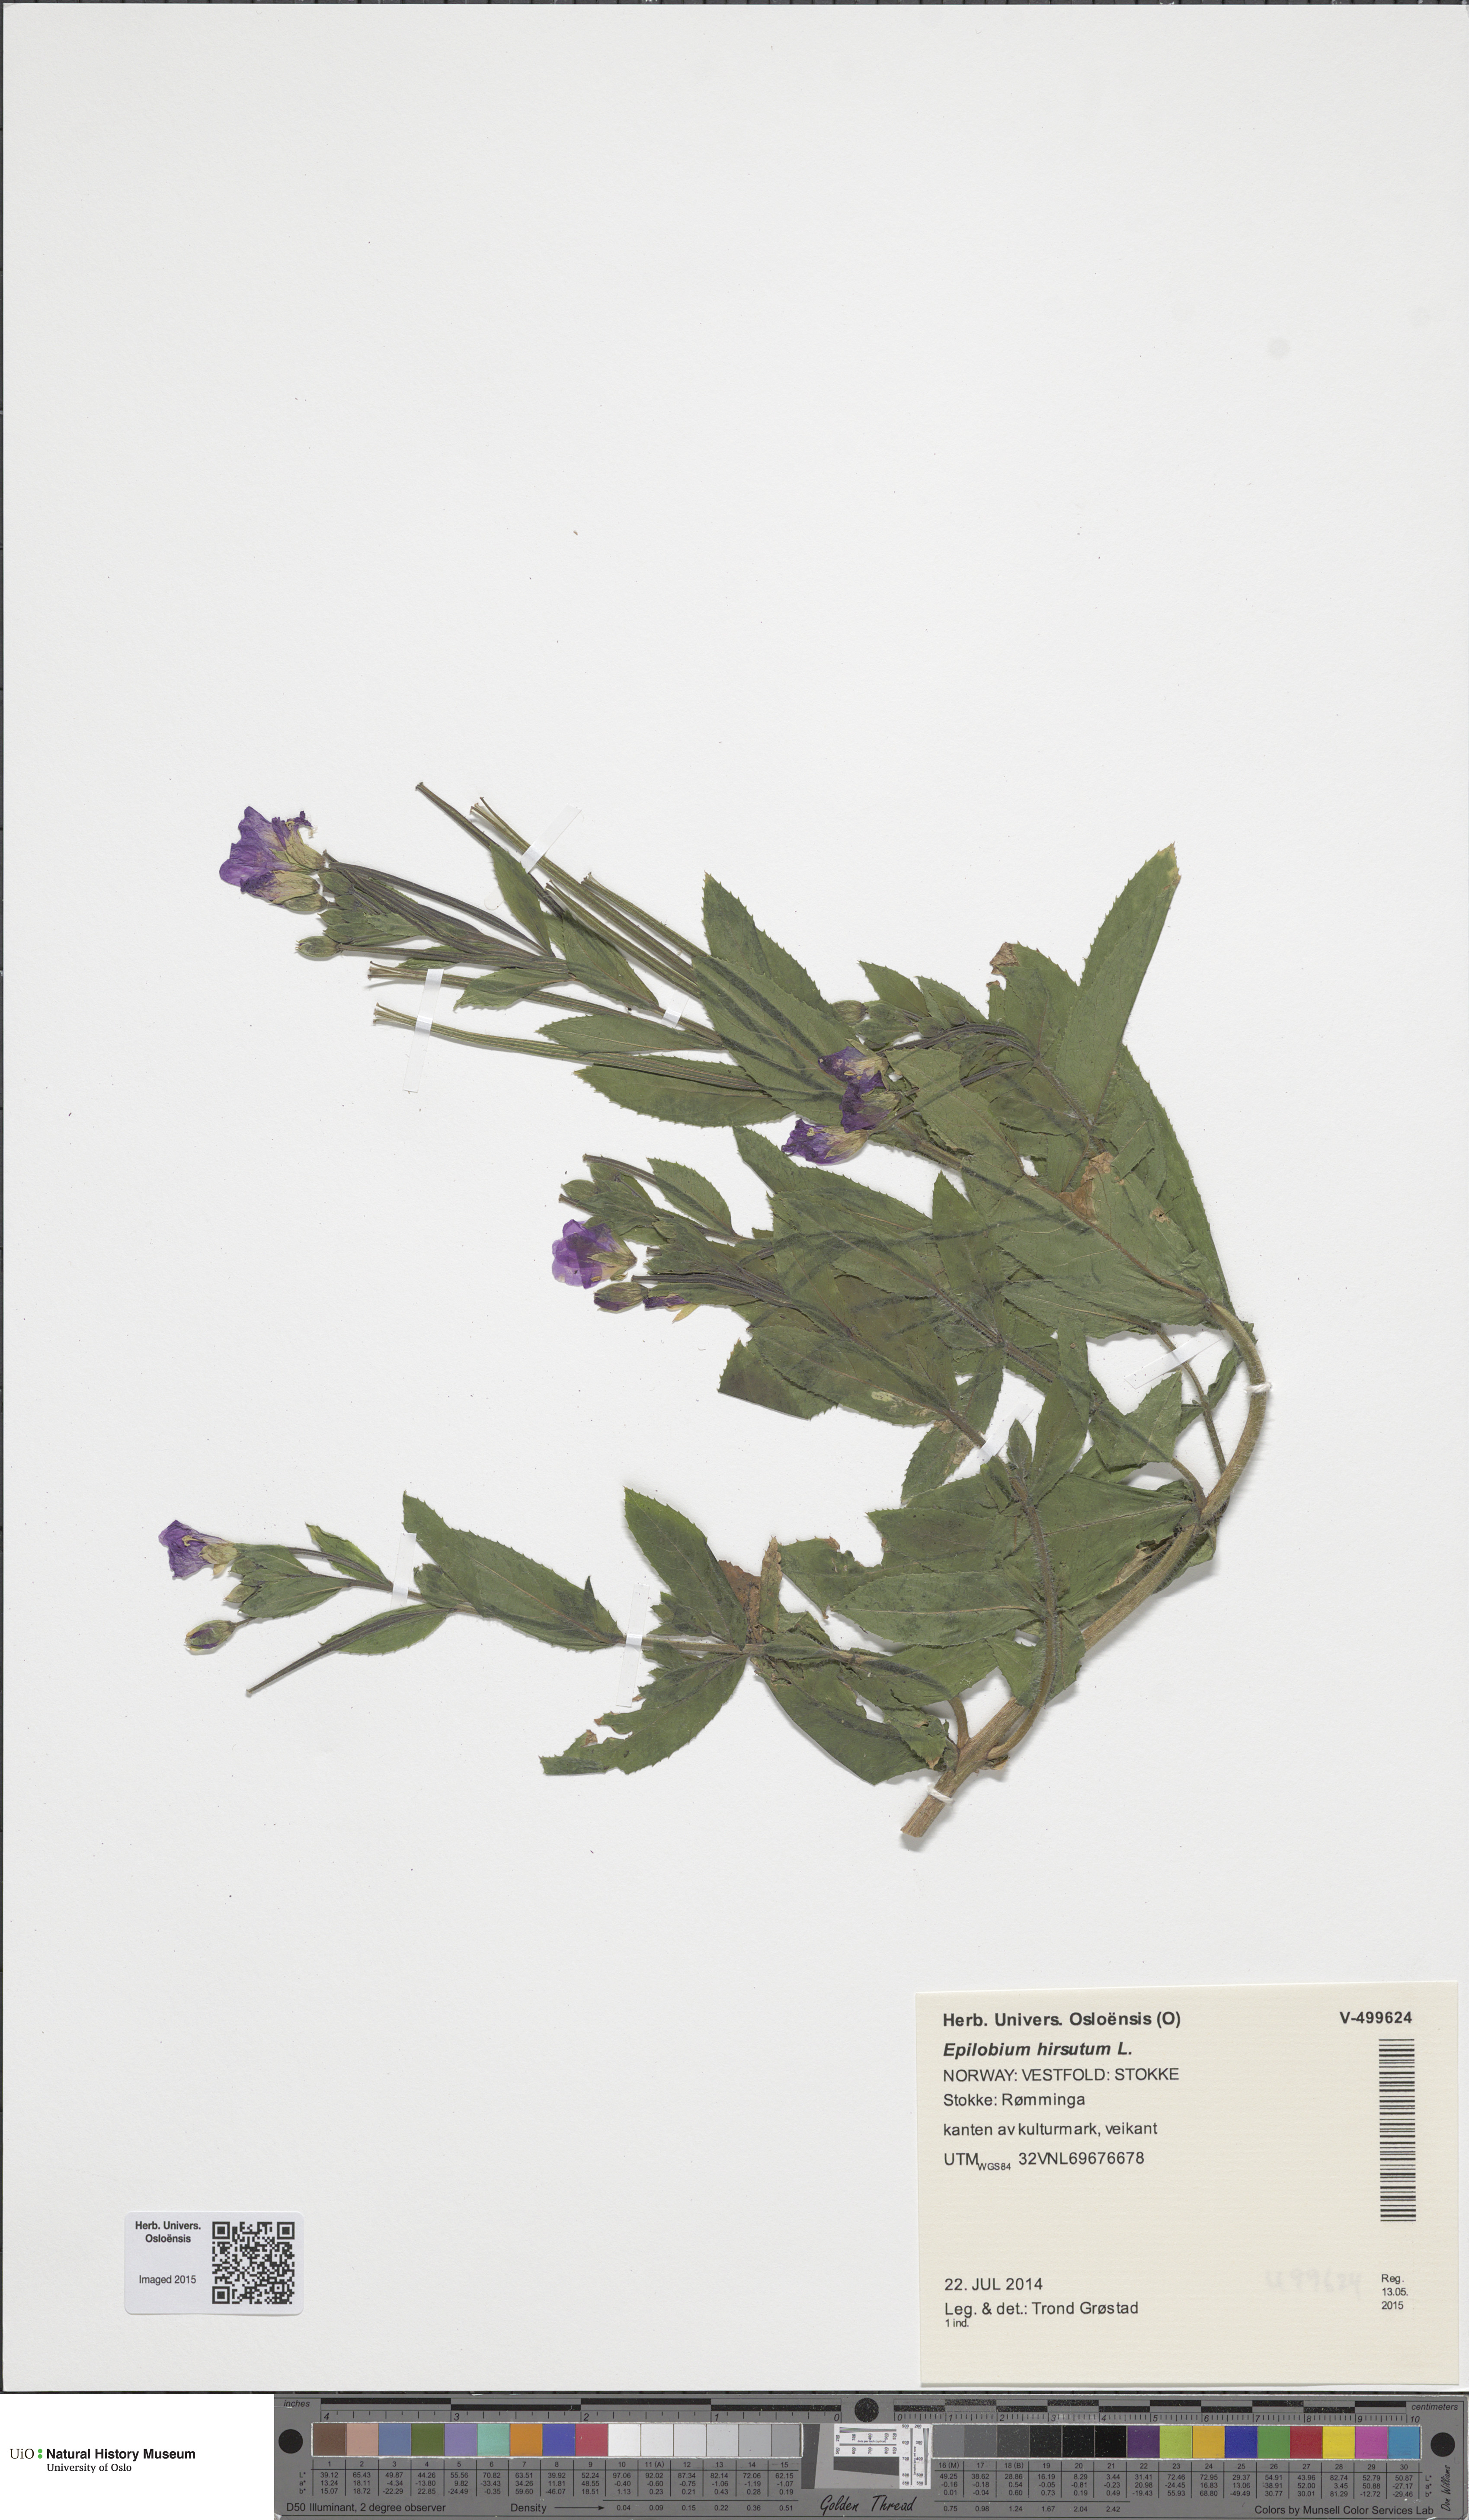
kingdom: Plantae
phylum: Tracheophyta
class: Magnoliopsida
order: Myrtales
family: Onagraceae
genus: Epilobium
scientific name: Epilobium hirsutum
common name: Great willowherb
